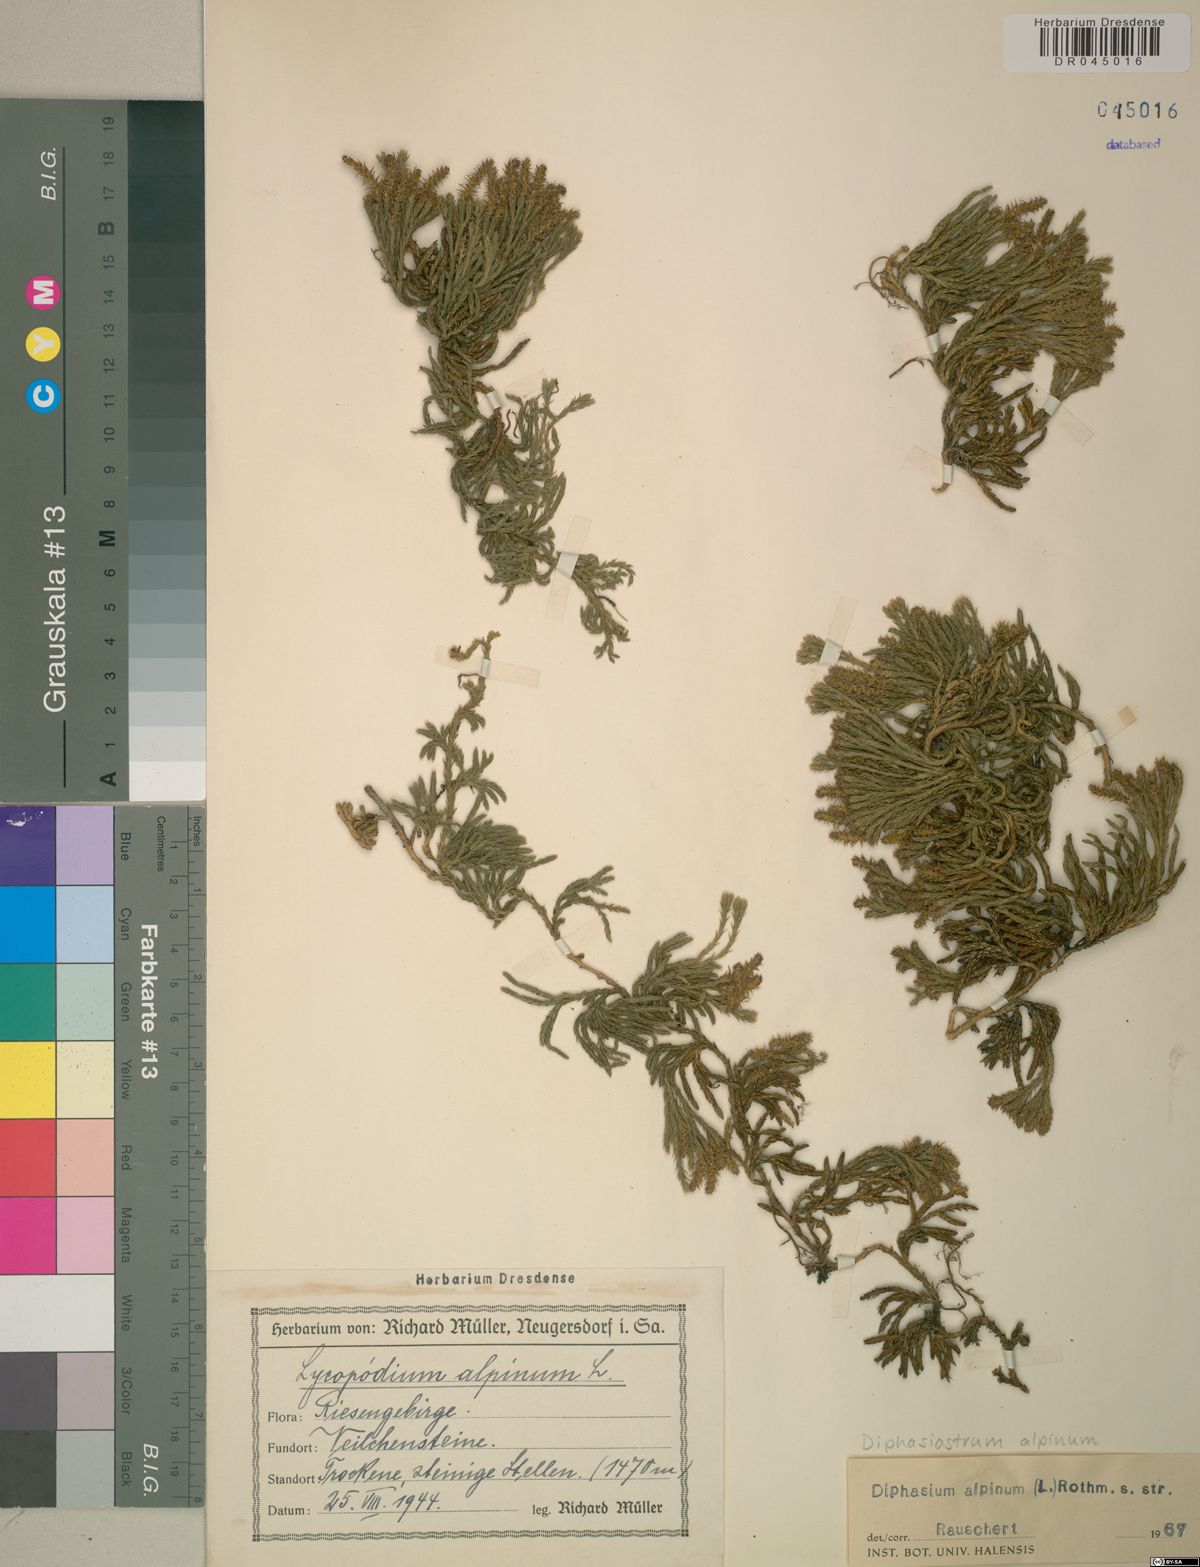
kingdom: Plantae
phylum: Tracheophyta
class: Lycopodiopsida
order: Lycopodiales
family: Lycopodiaceae
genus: Diphasiastrum
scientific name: Diphasiastrum alpinum
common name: Alpine clubmoss
